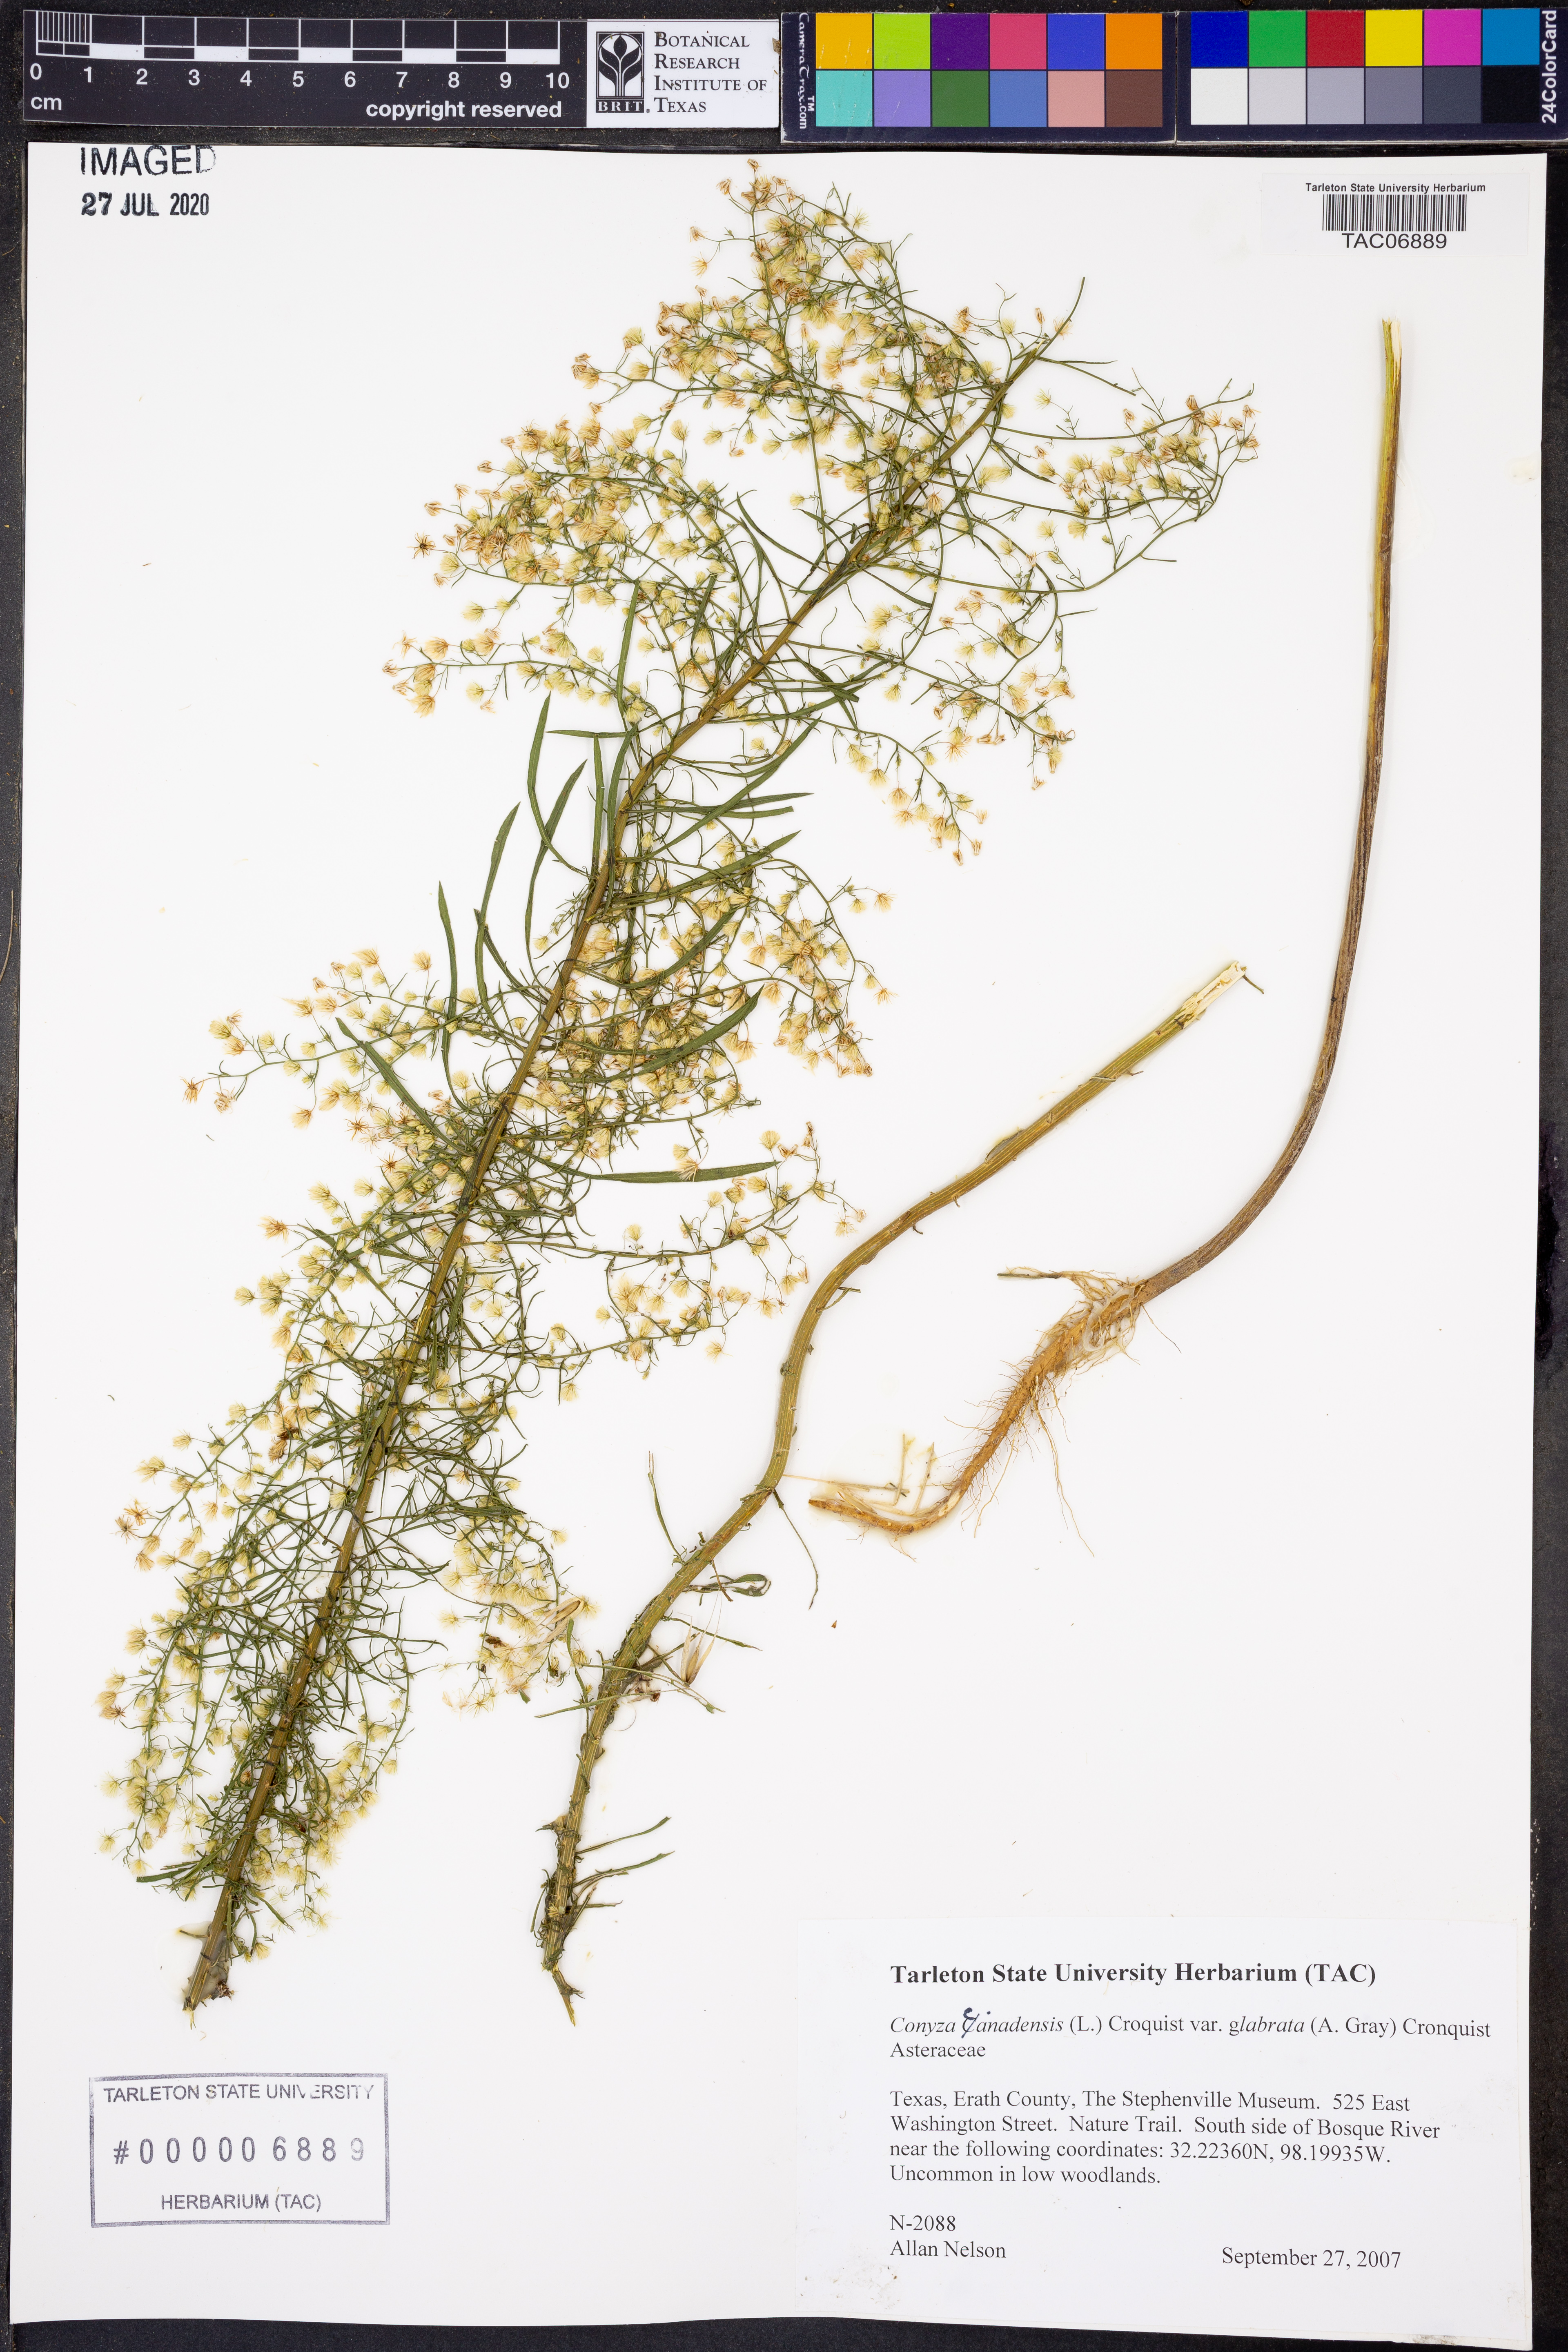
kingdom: Plantae
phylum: Tracheophyta
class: Magnoliopsida
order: Asterales
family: Asteraceae
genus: Erigeron
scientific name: Erigeron canadensis
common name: Canadian fleabane
